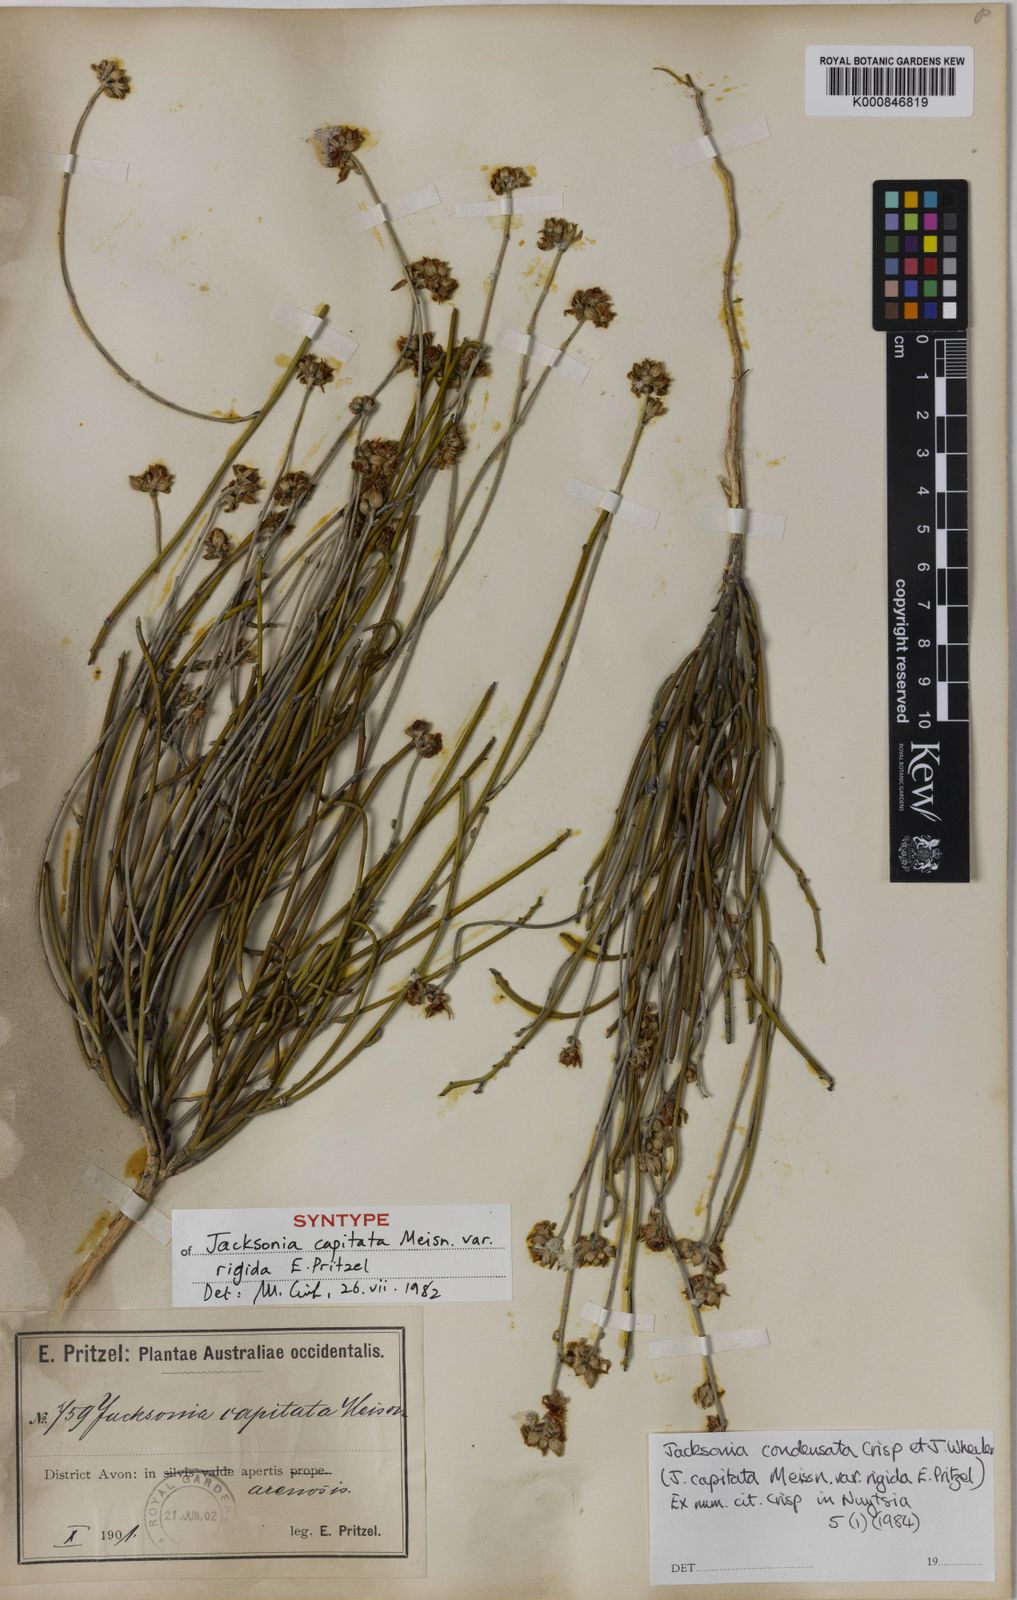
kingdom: Plantae
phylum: Tracheophyta
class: Magnoliopsida
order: Fabales
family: Fabaceae
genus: Jacksonia
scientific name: Jacksonia condensata
